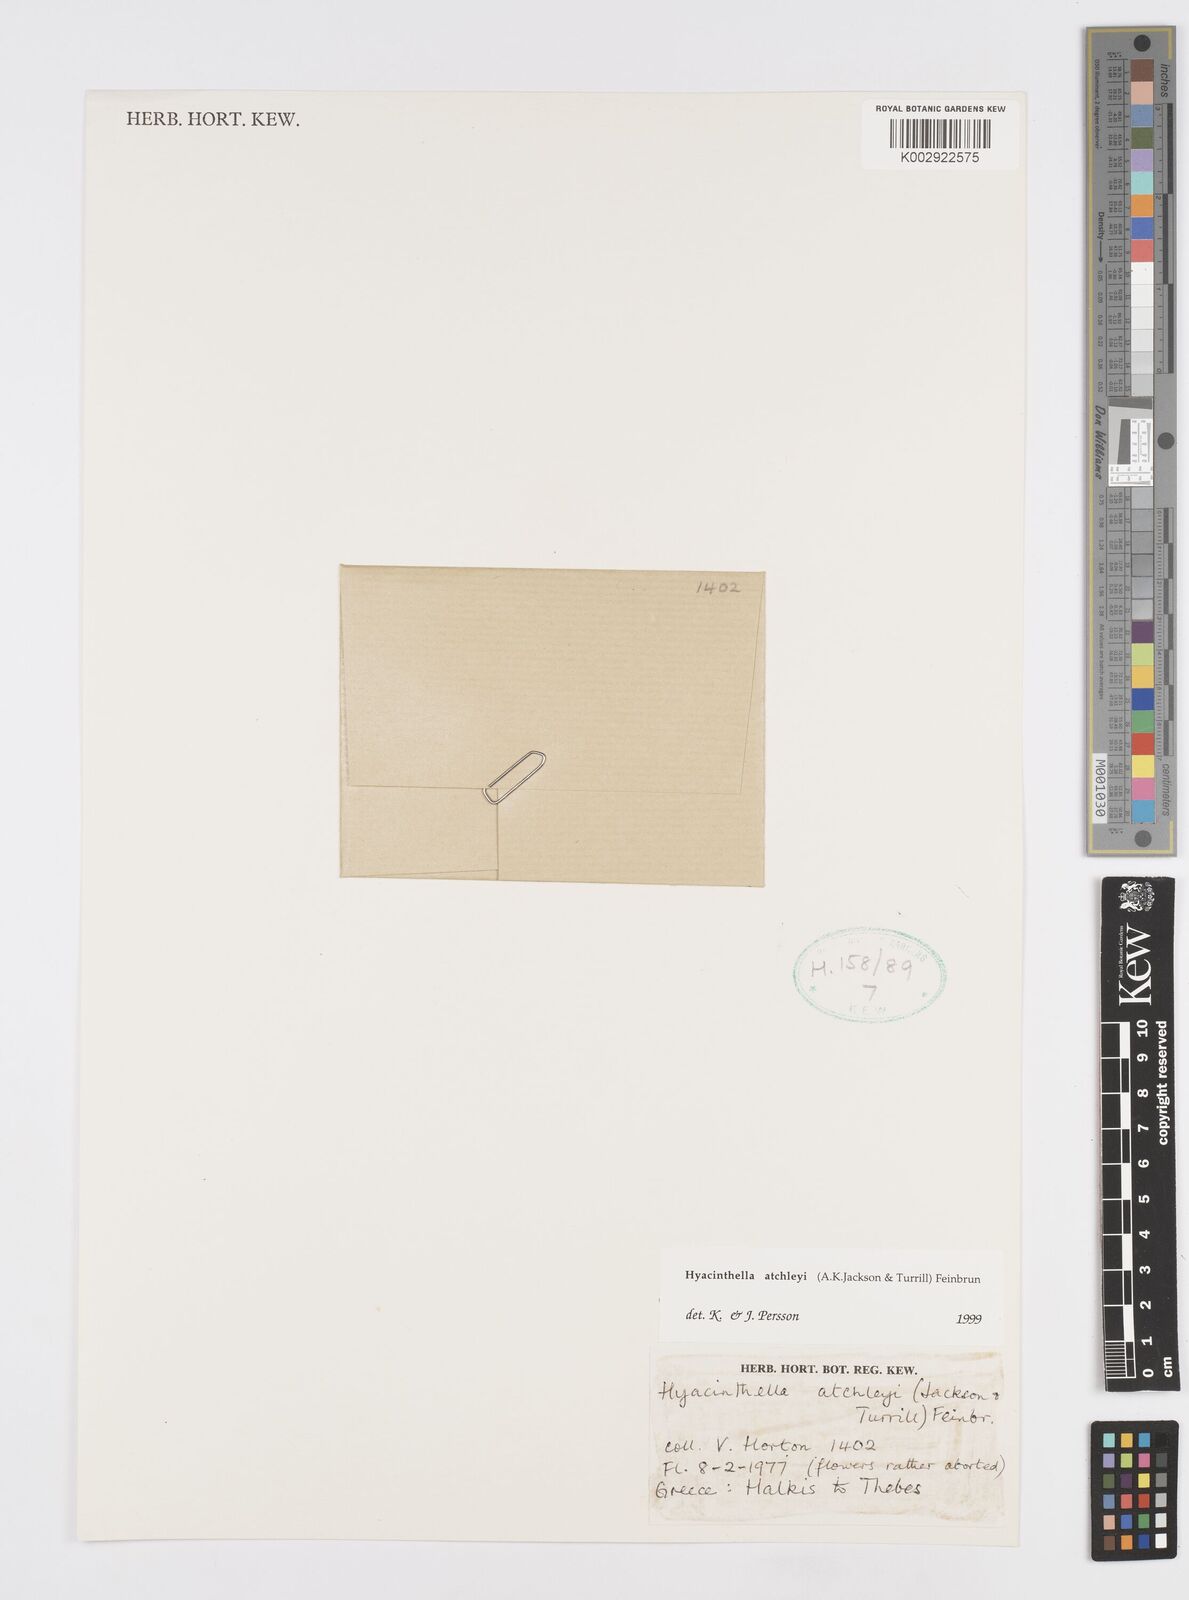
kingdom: Plantae
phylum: Tracheophyta
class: Liliopsida
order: Asparagales
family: Asparagaceae
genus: Hyacinthella
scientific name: Hyacinthella leucophaea
